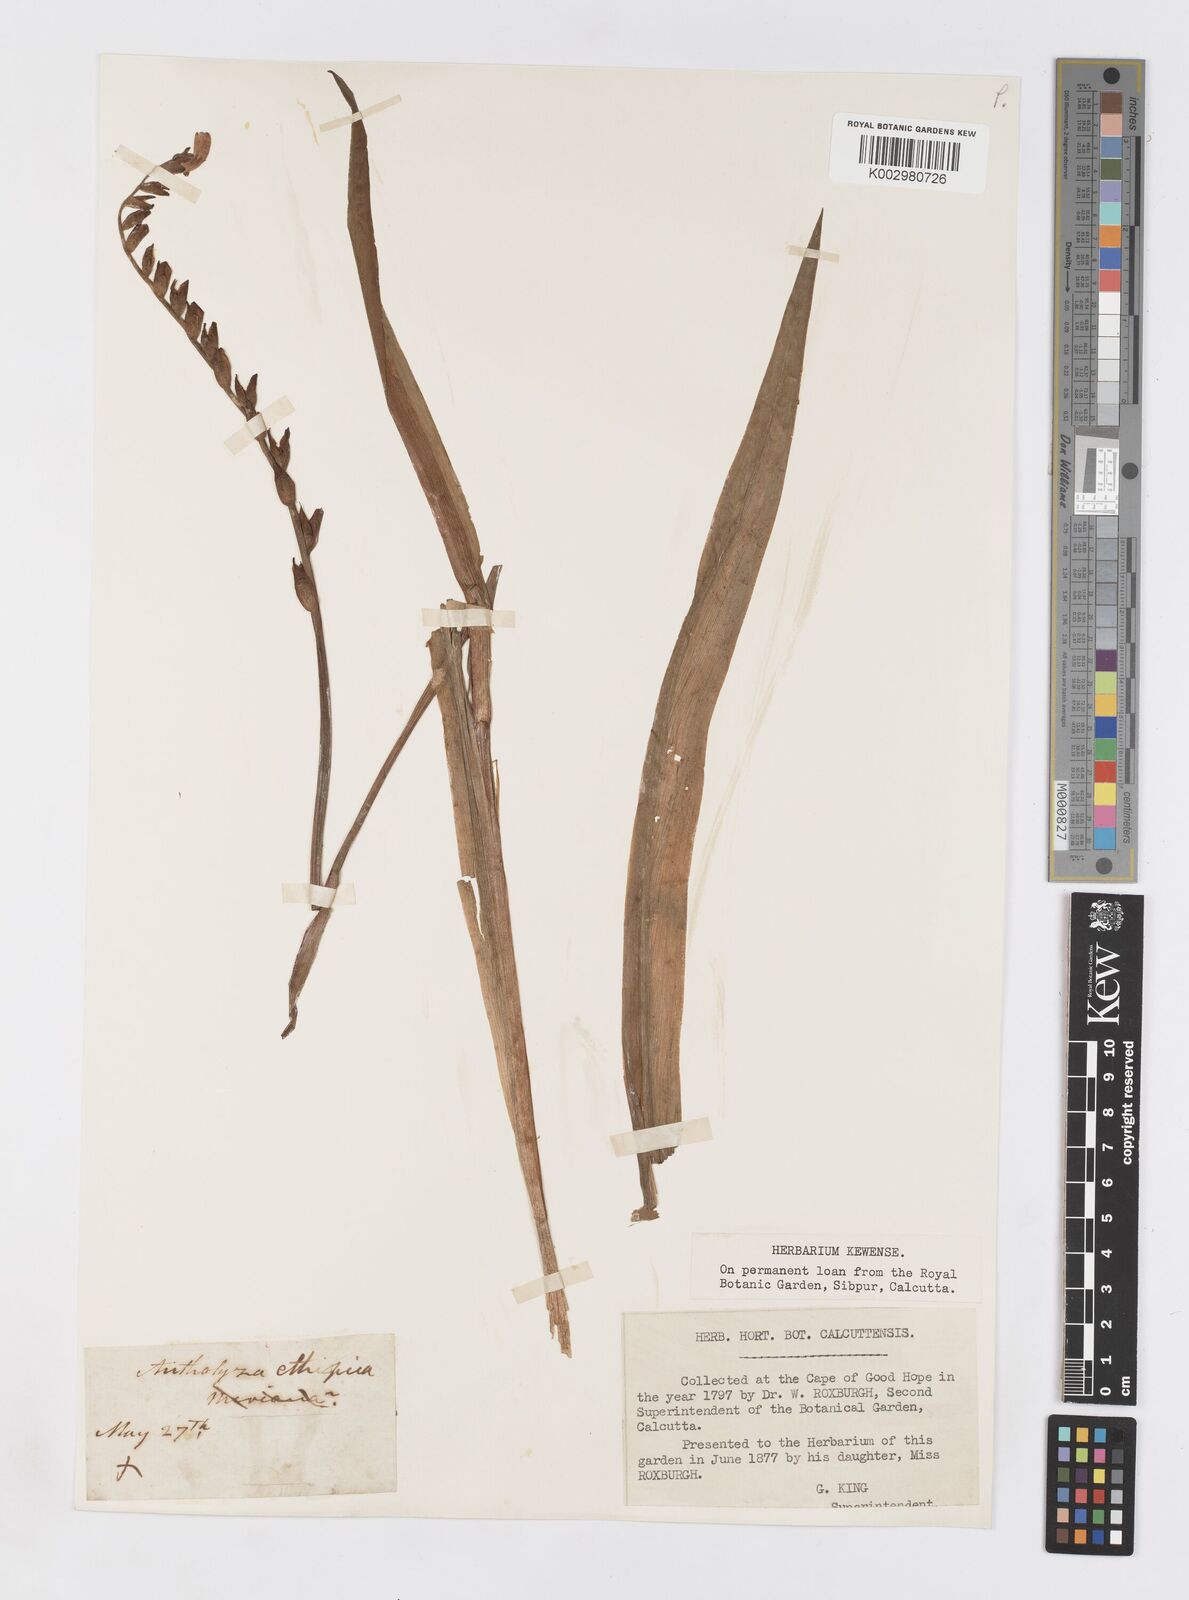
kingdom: Plantae
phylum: Tracheophyta
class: Liliopsida
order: Asparagales
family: Iridaceae
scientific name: Iridaceae
